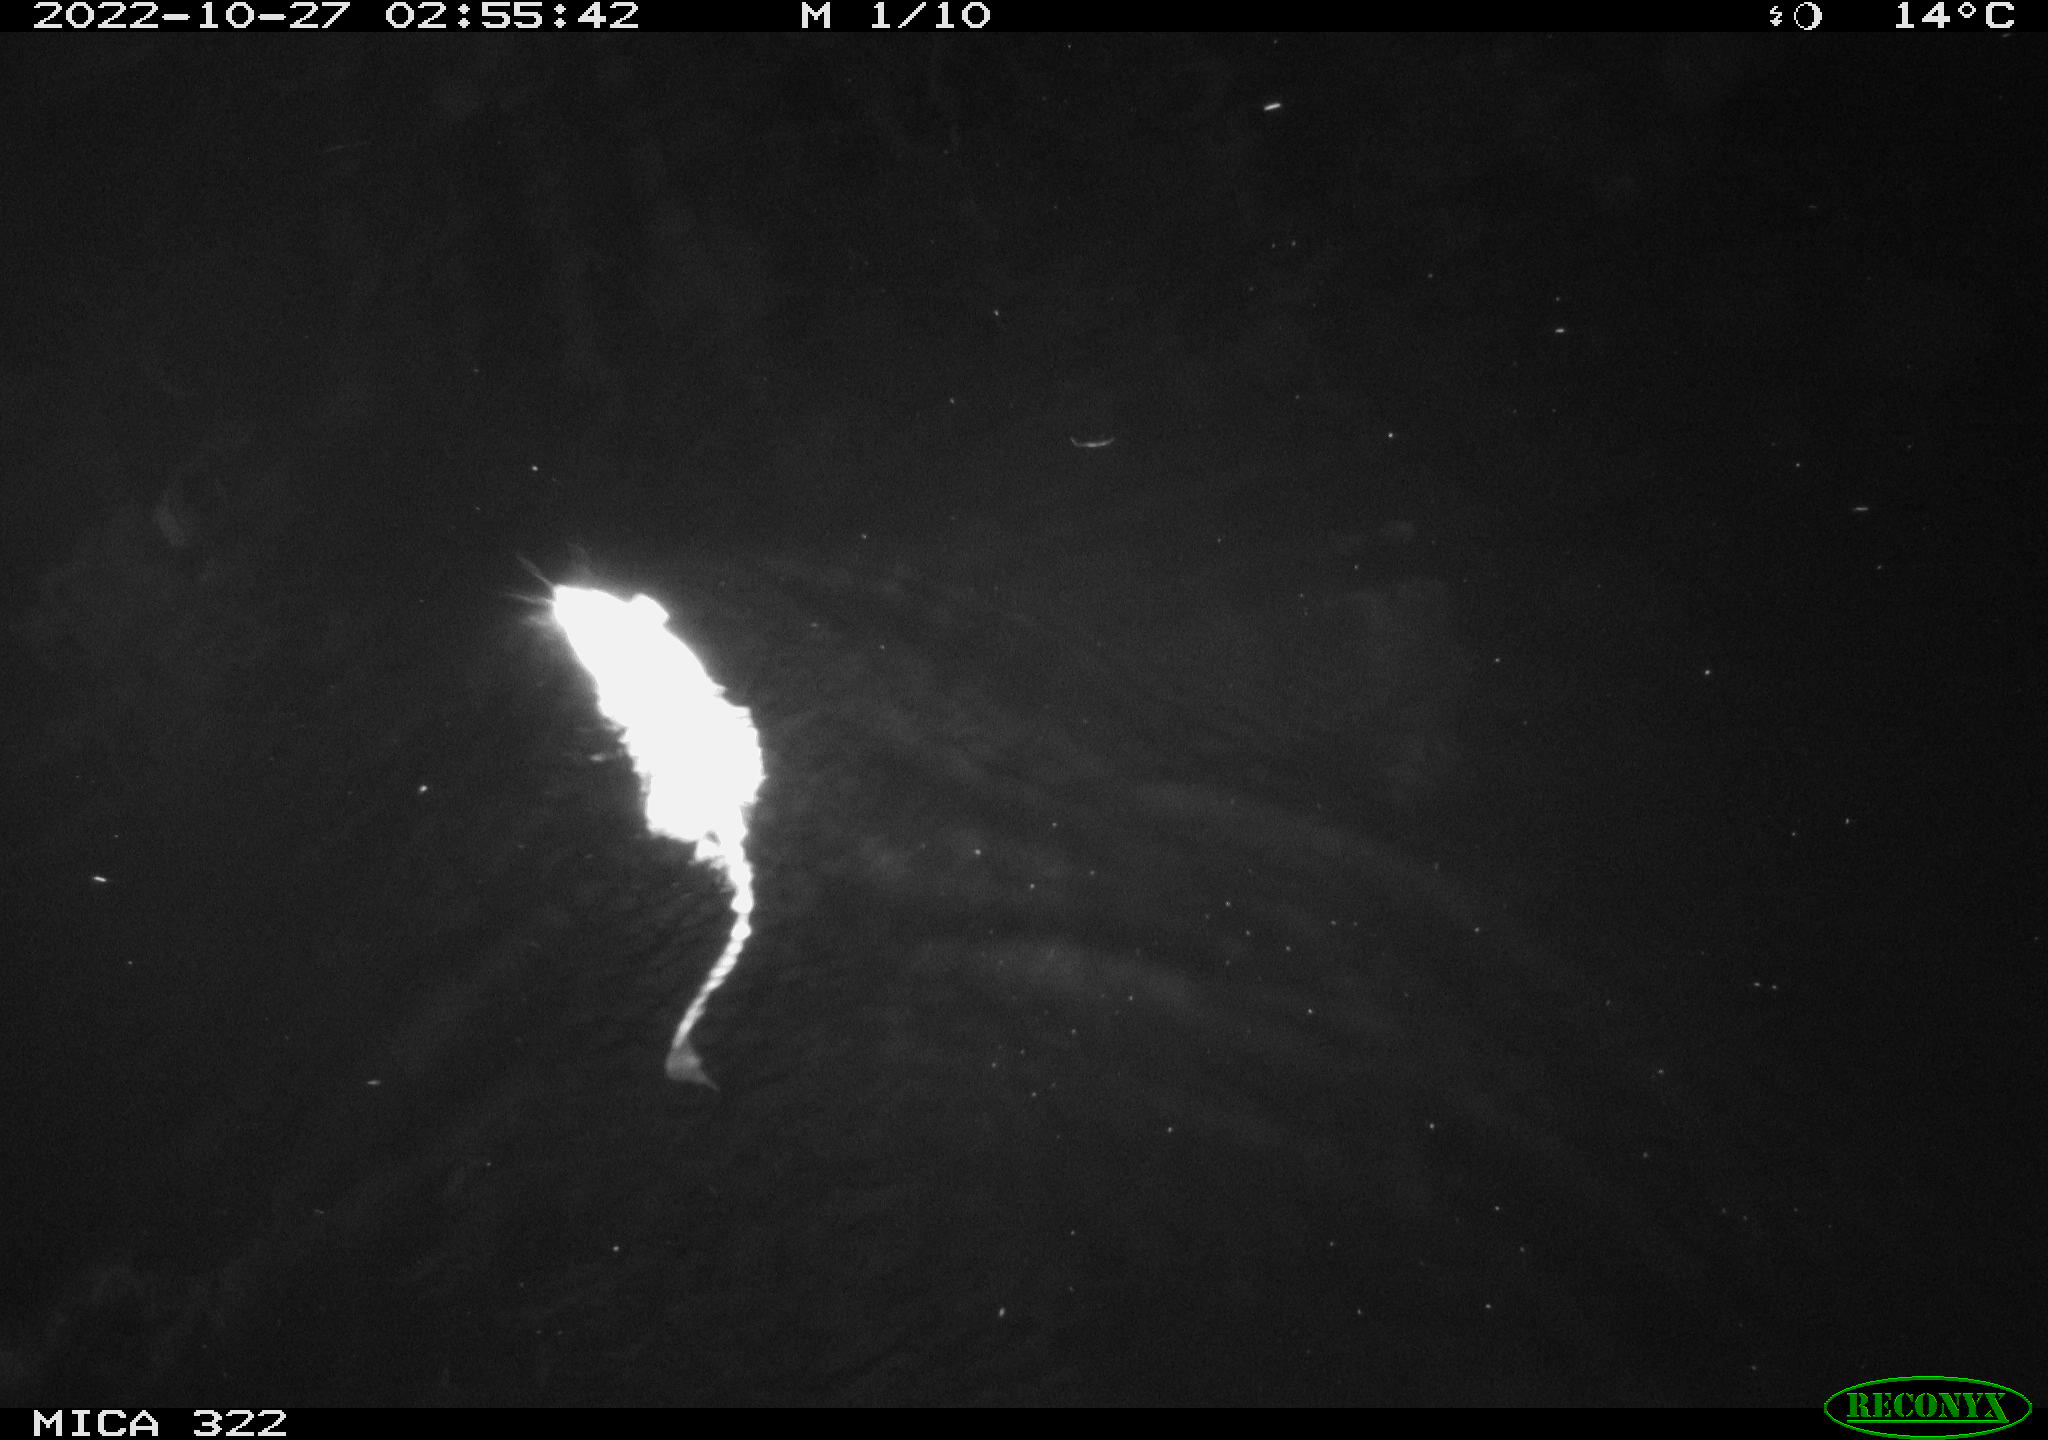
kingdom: Animalia
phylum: Chordata
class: Mammalia
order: Rodentia
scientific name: Rodentia
